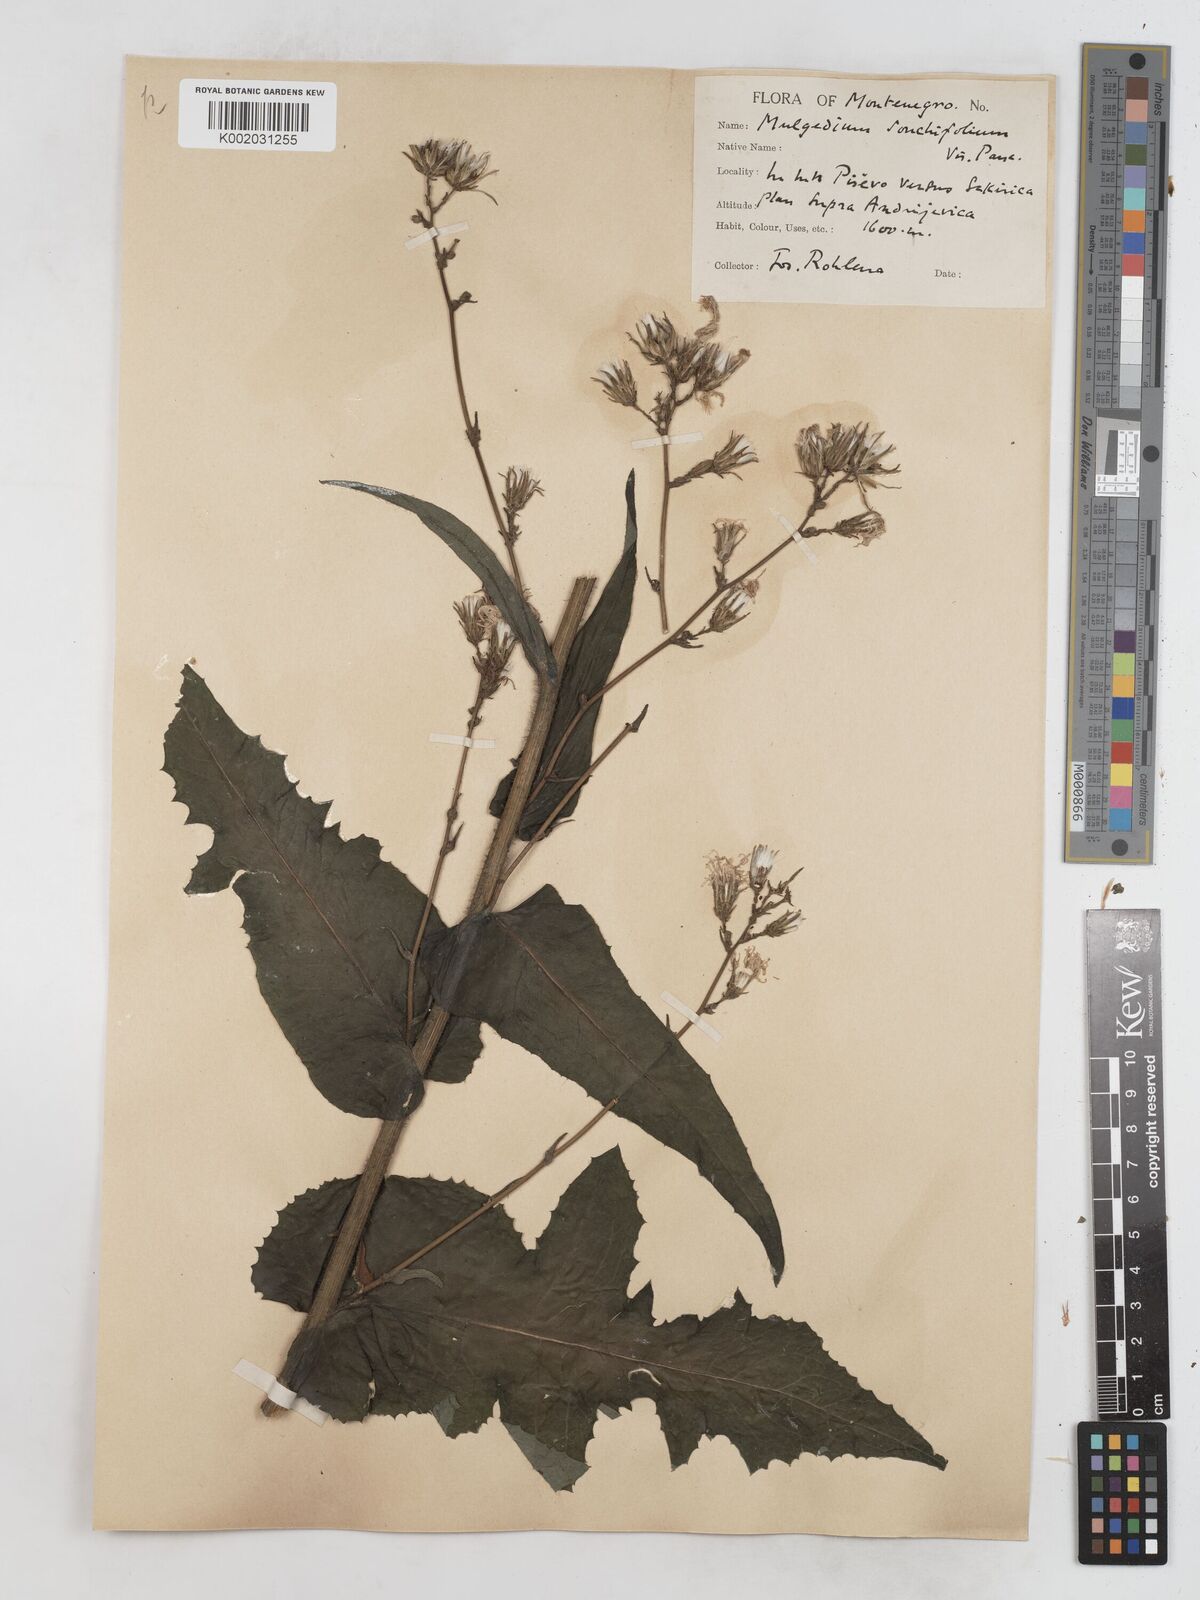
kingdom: Plantae
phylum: Tracheophyta
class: Magnoliopsida
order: Asterales
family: Asteraceae
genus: Lactuca
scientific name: Lactuca sonchifolia
